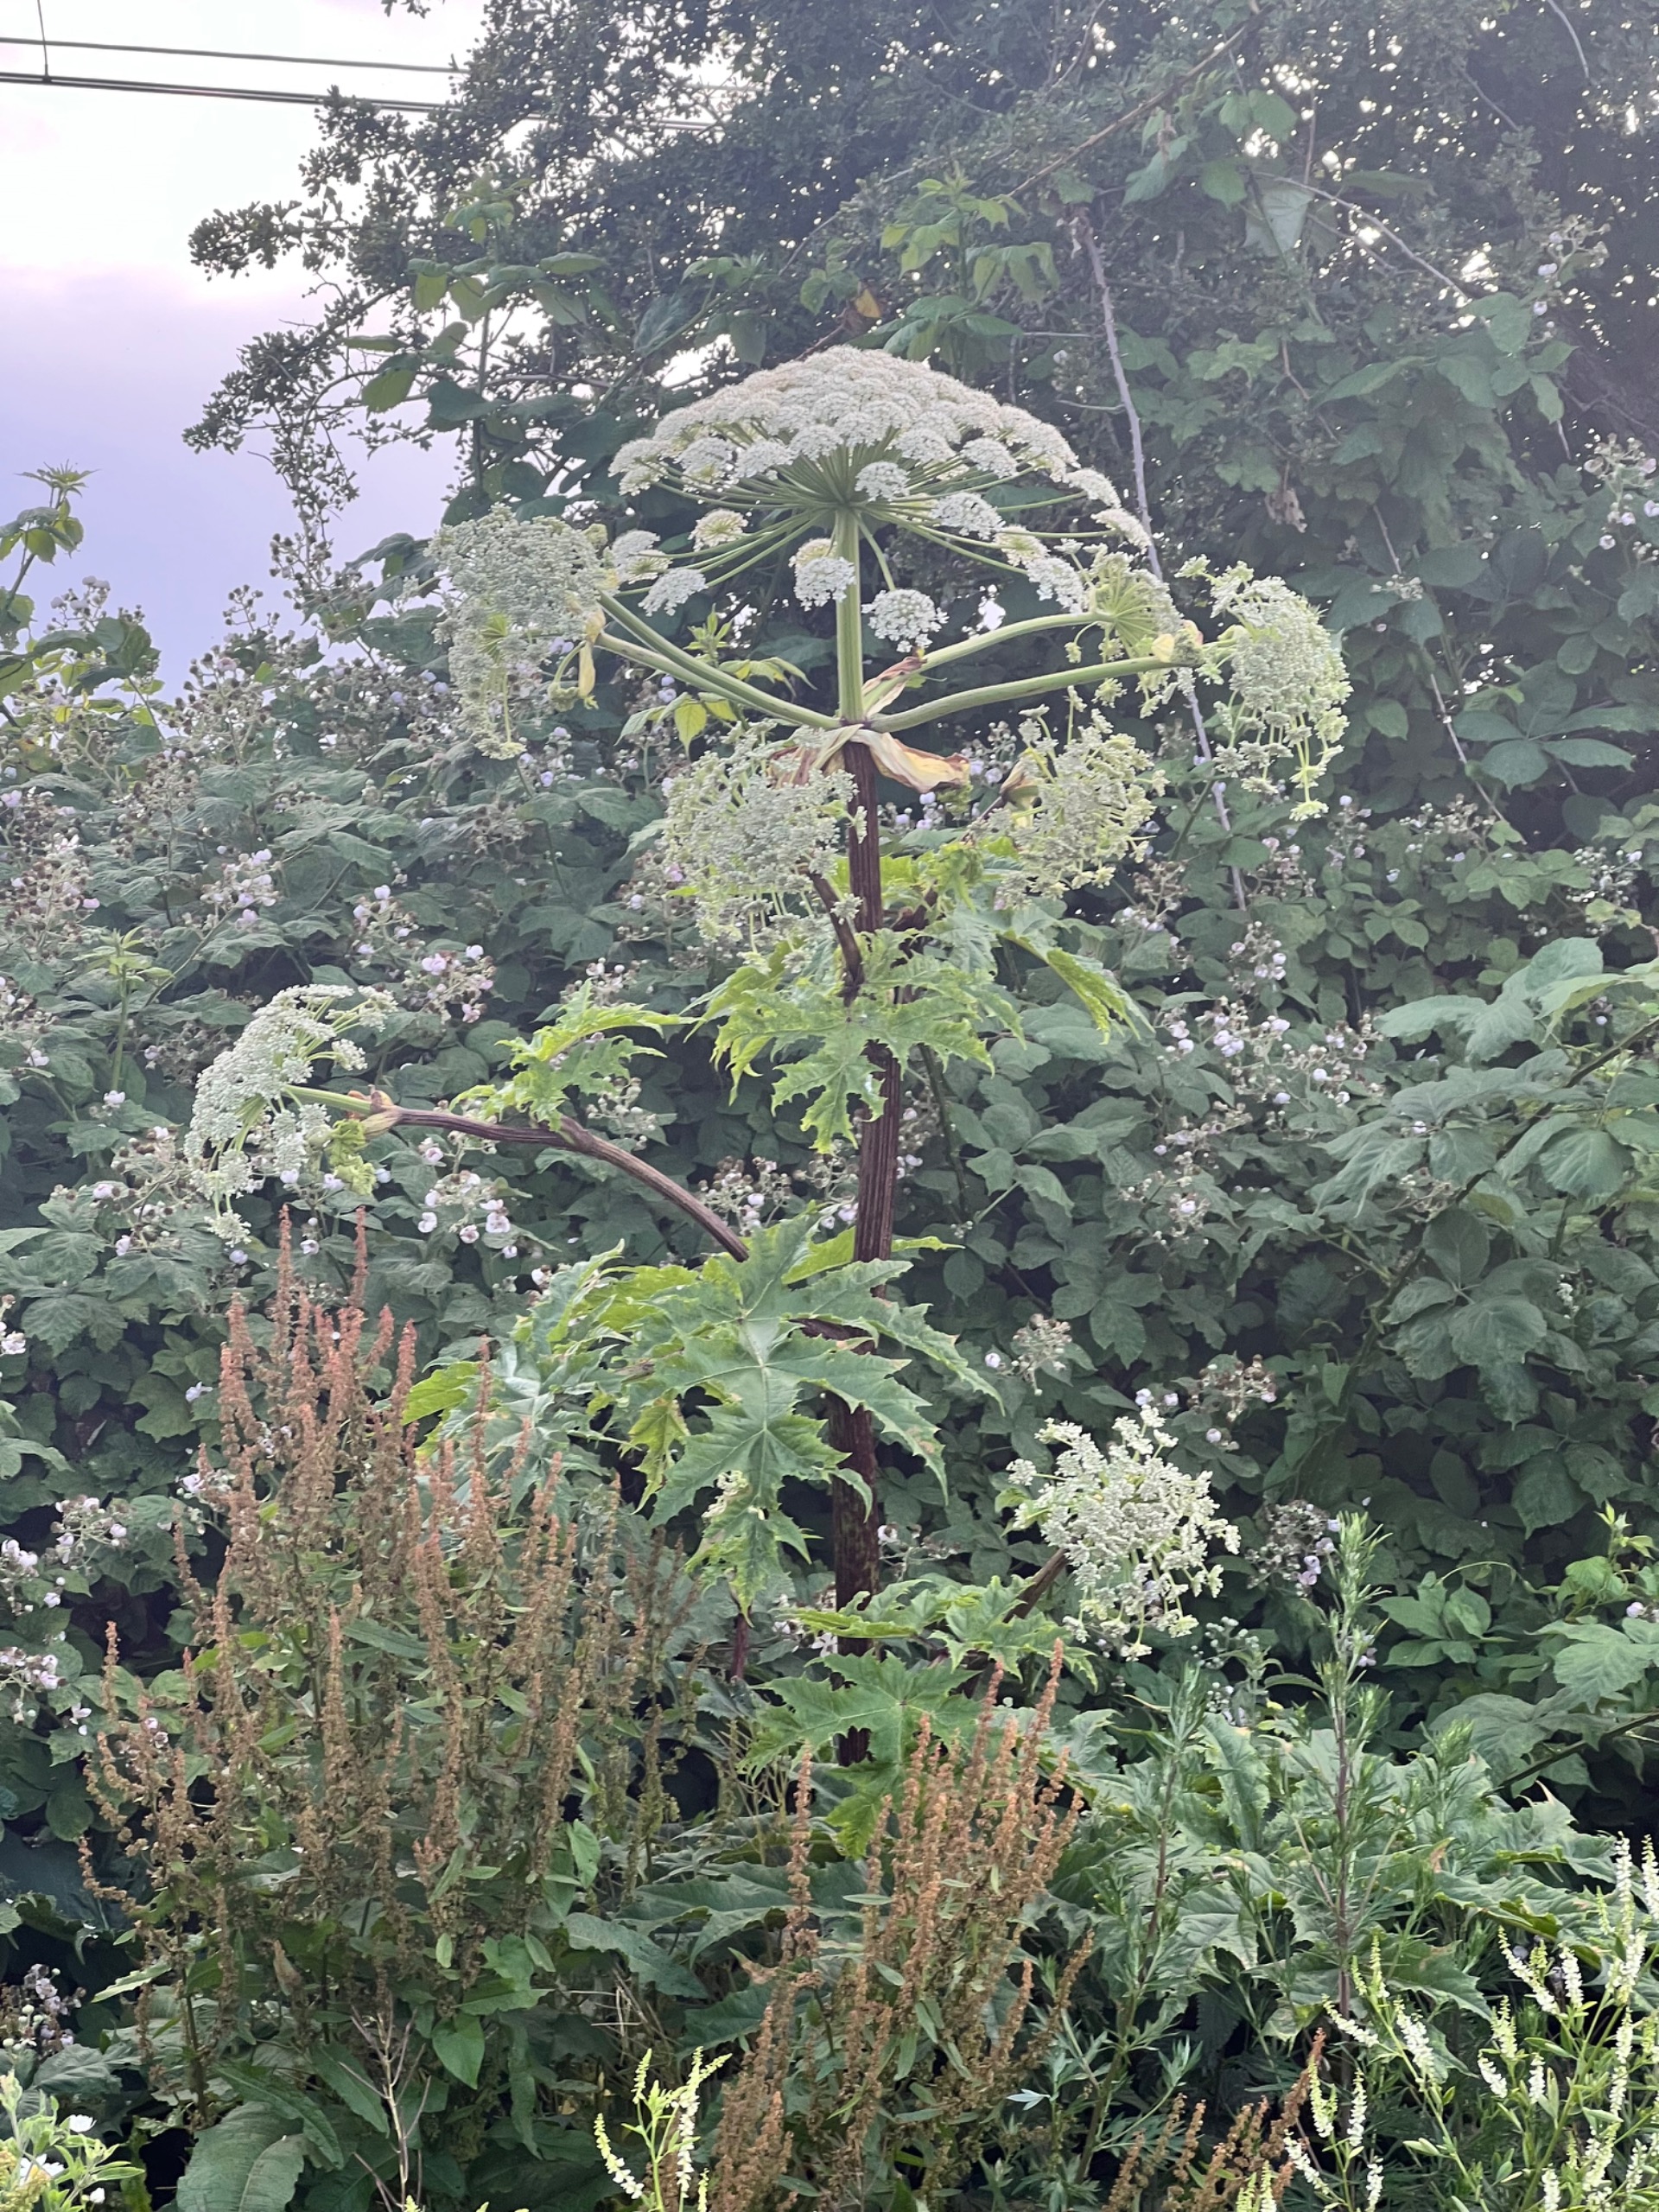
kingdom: Plantae
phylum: Tracheophyta
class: Magnoliopsida
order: Apiales
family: Apiaceae
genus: Heracleum
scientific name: Heracleum mantegazzianum
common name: Kæmpe-bjørneklo
